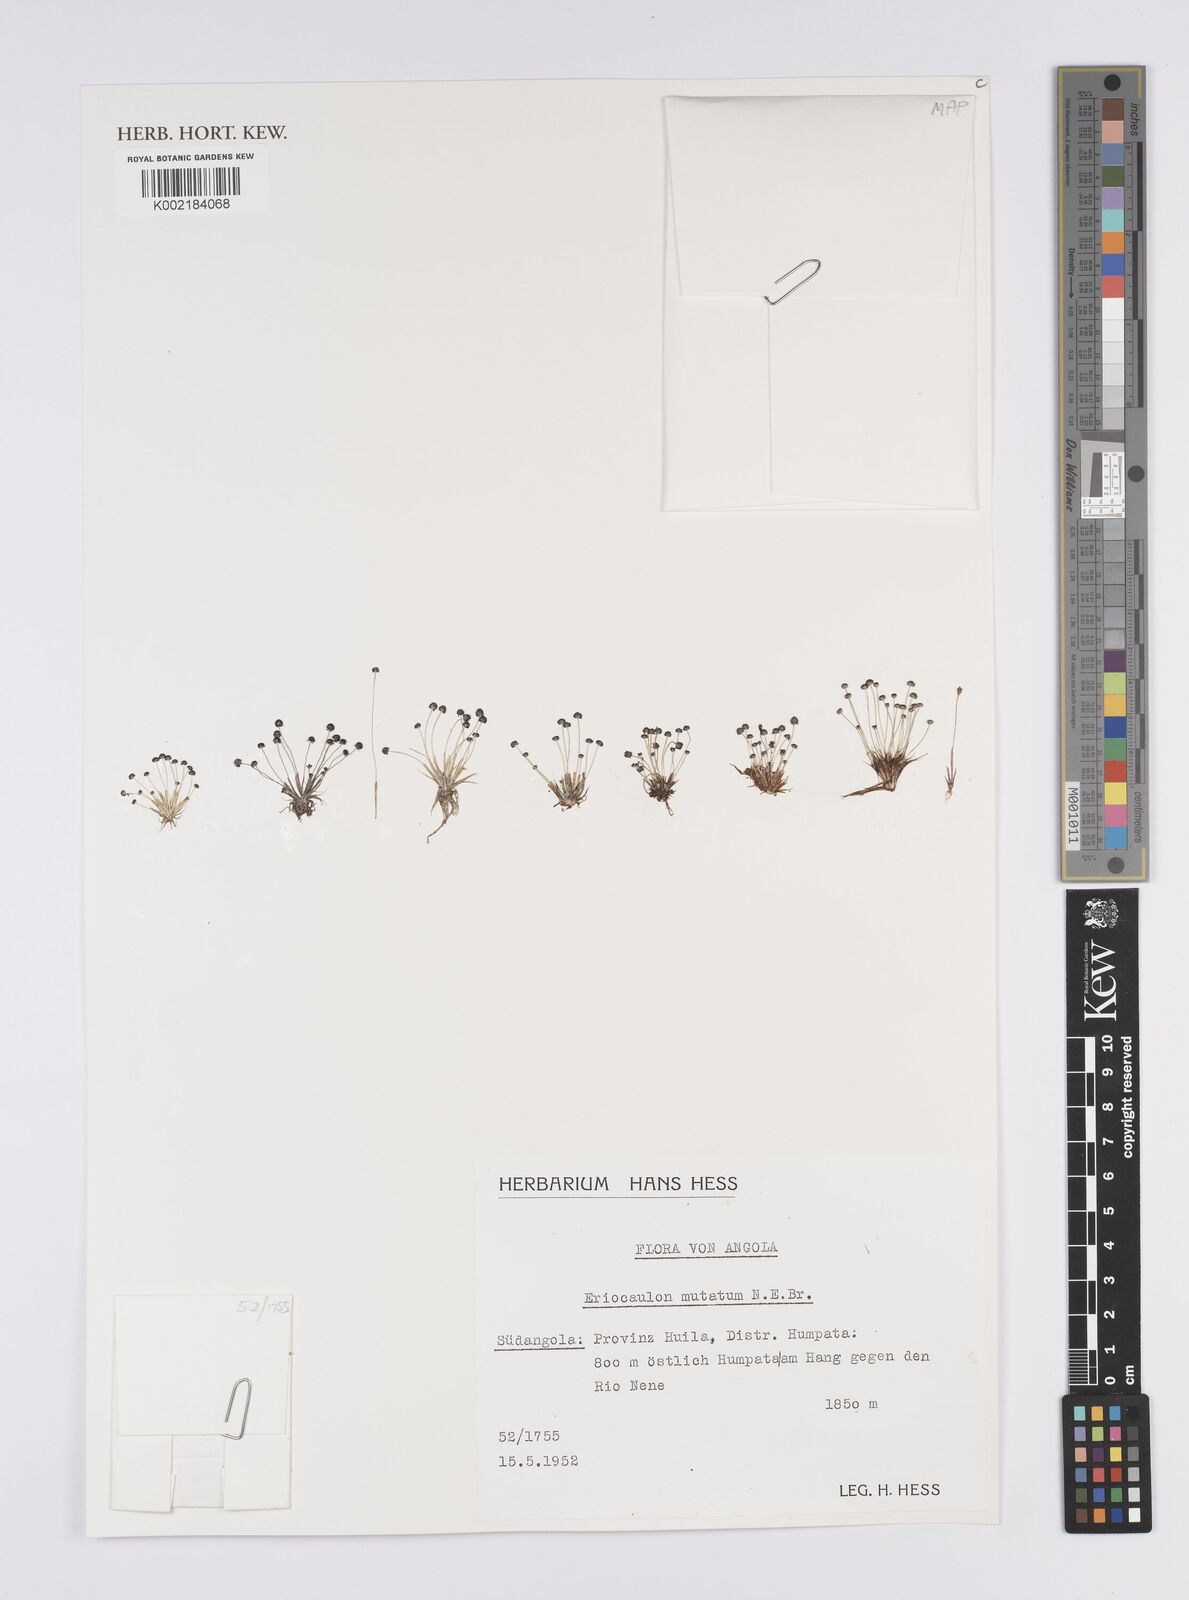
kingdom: Plantae
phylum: Tracheophyta
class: Liliopsida
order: Poales
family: Eriocaulaceae
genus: Eriocaulon
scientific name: Eriocaulon mutatum
